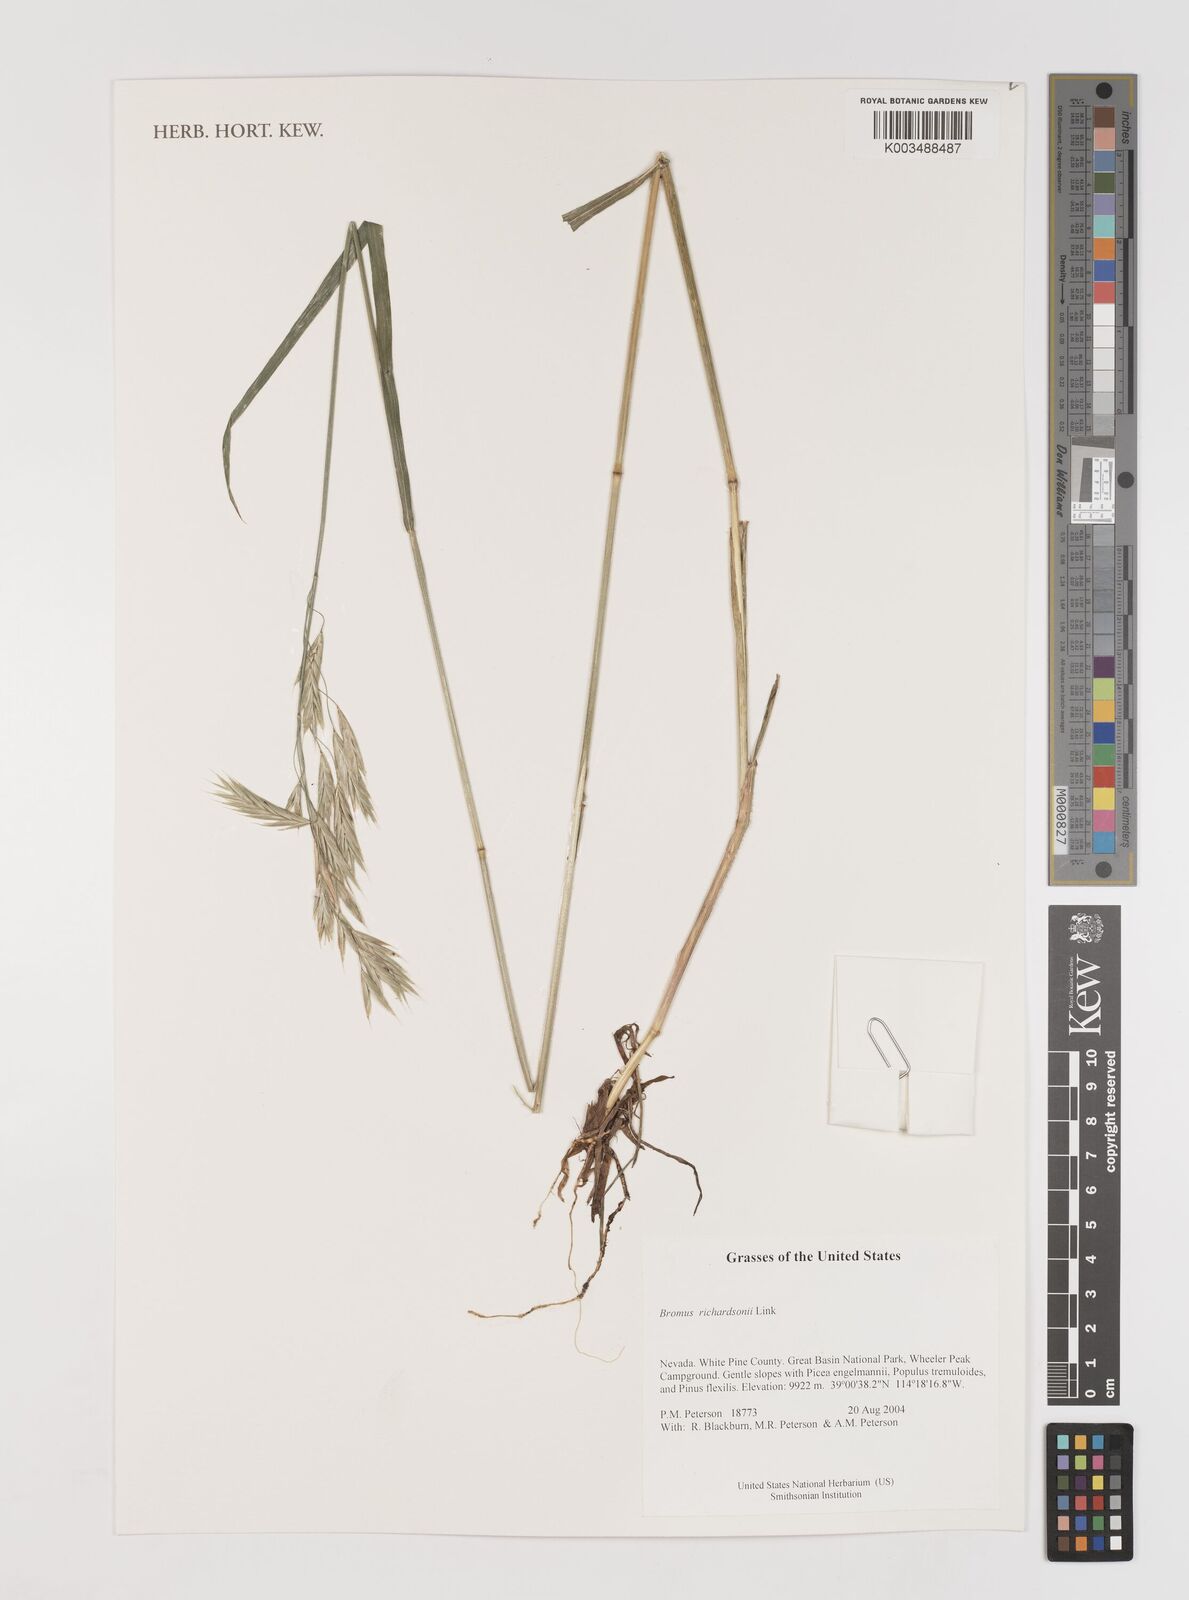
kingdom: Plantae
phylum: Tracheophyta
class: Liliopsida
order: Poales
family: Poaceae
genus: Bromus
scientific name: Bromus richardsonii
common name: Richardson's brome
